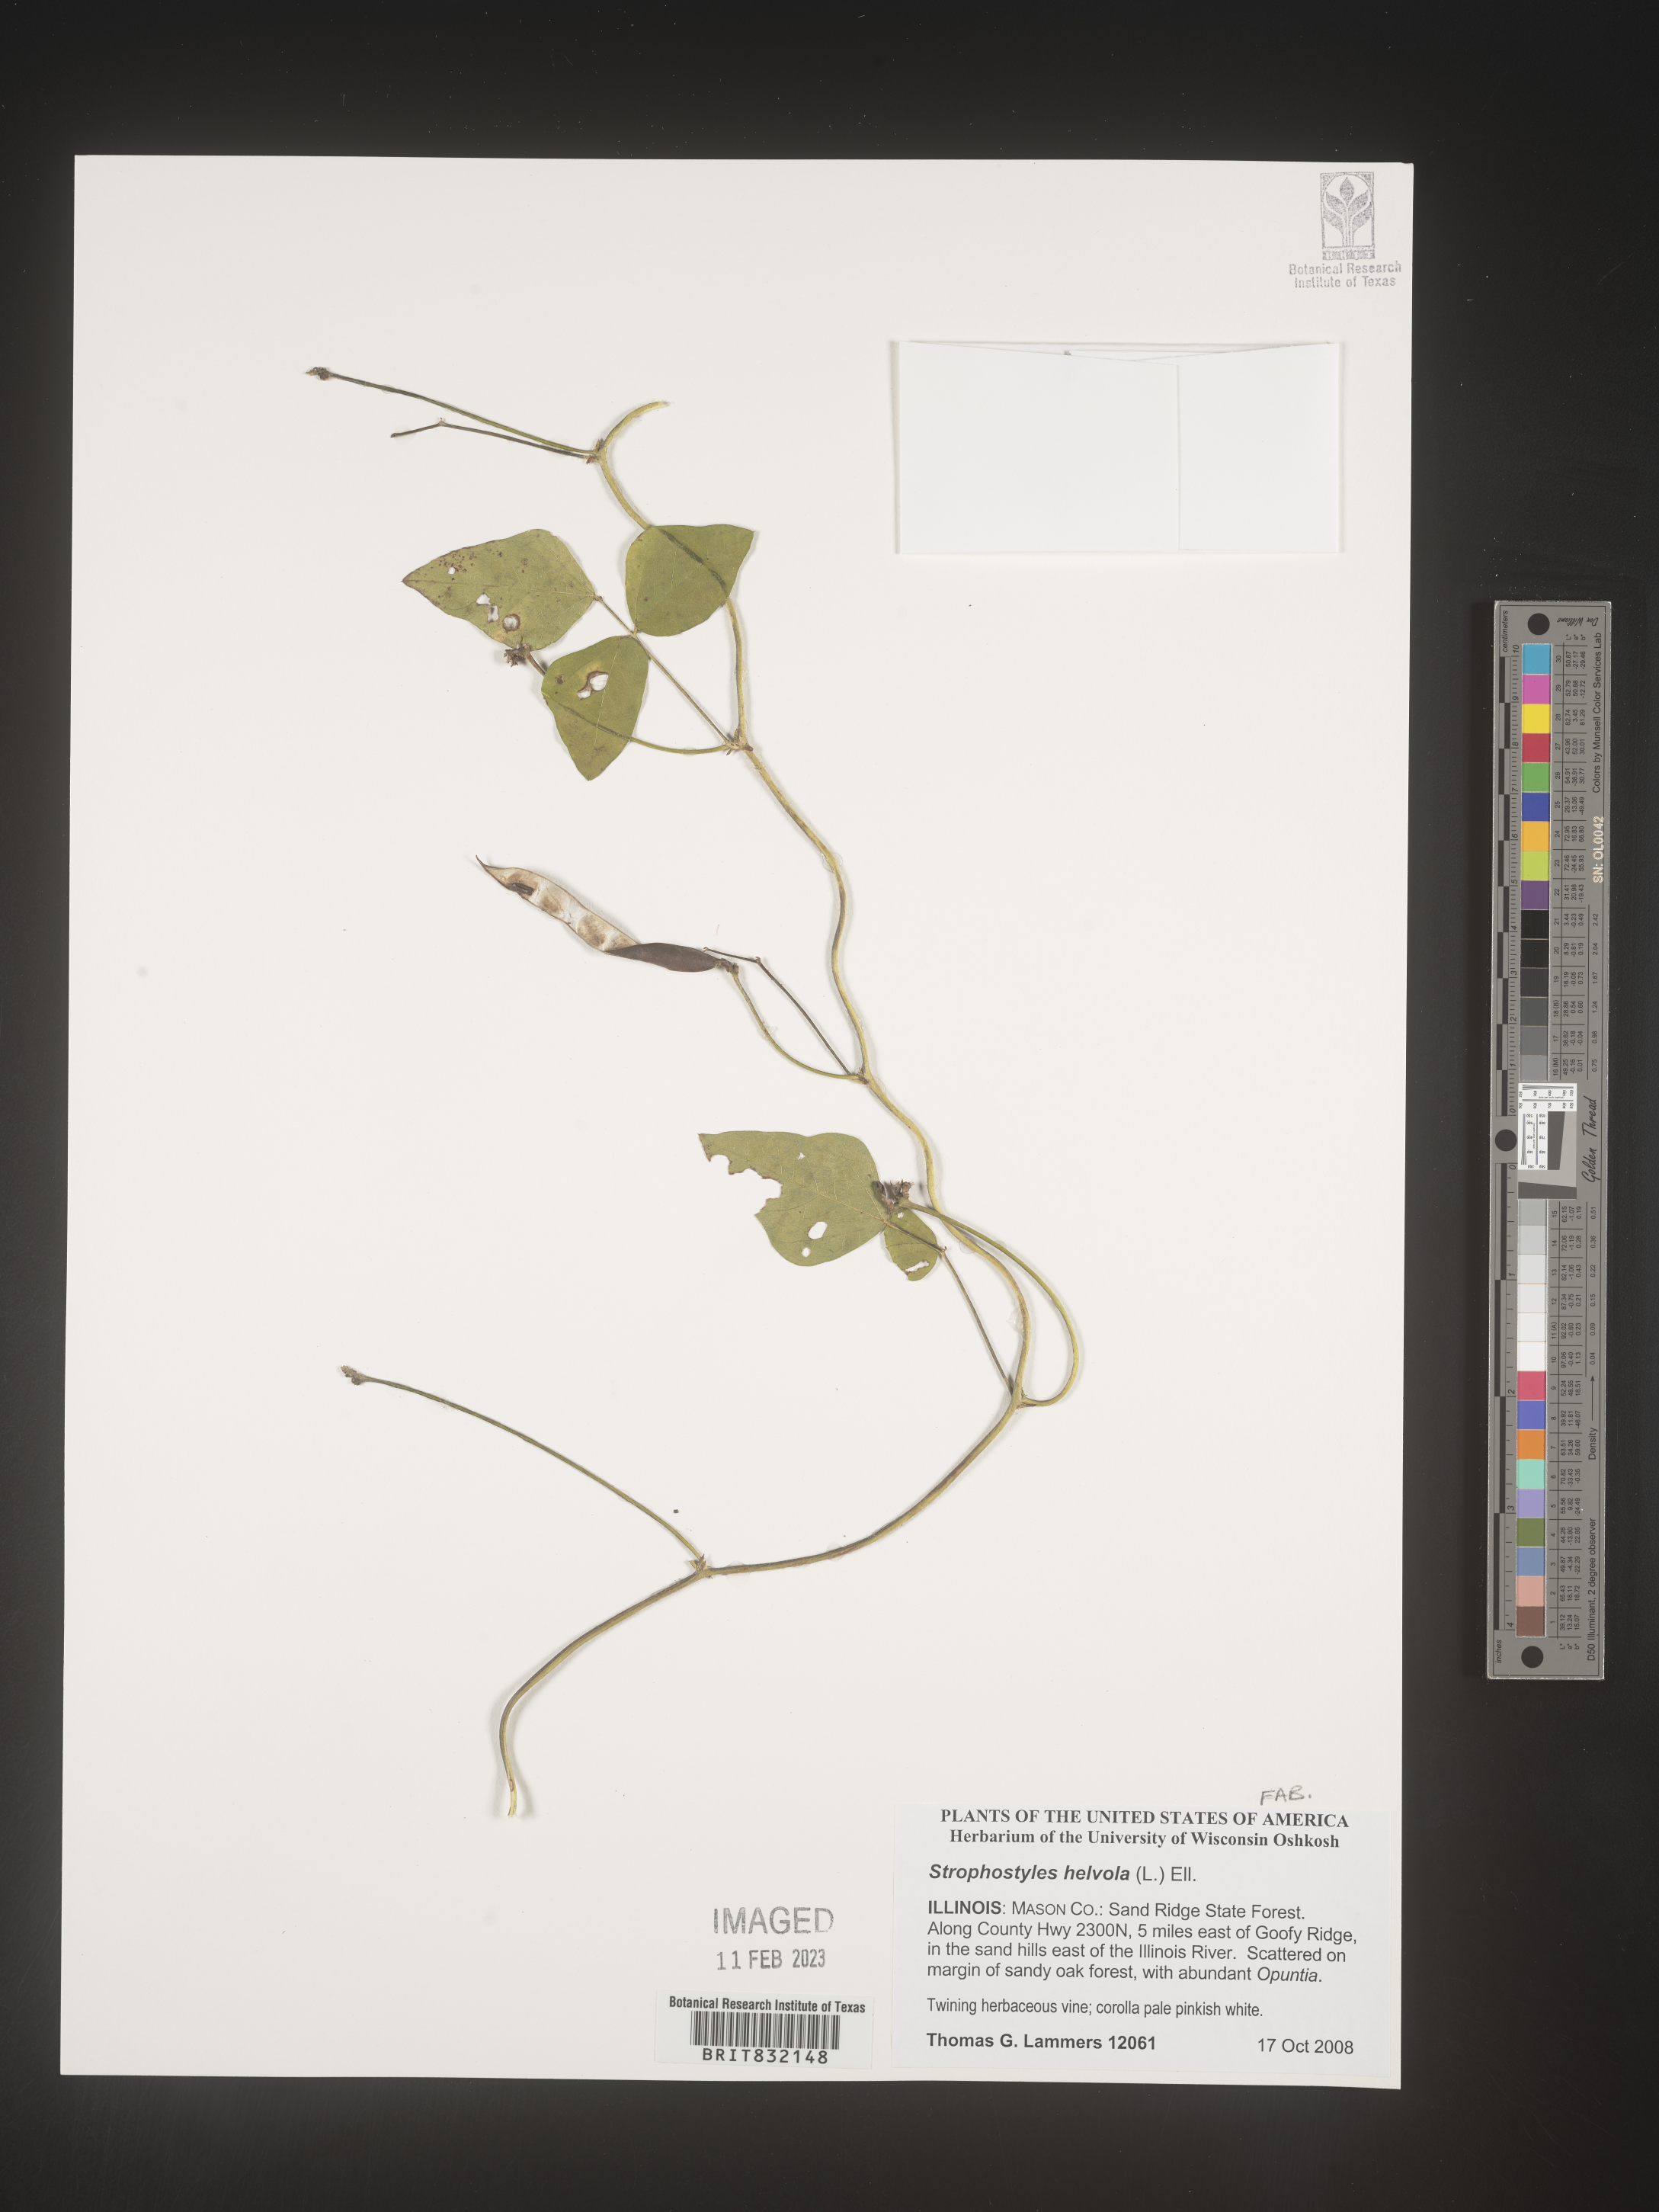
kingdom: Plantae
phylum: Tracheophyta
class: Magnoliopsida
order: Fabales
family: Fabaceae
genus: Strophostyles
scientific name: Strophostyles helvola
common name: Trailing wild bean
